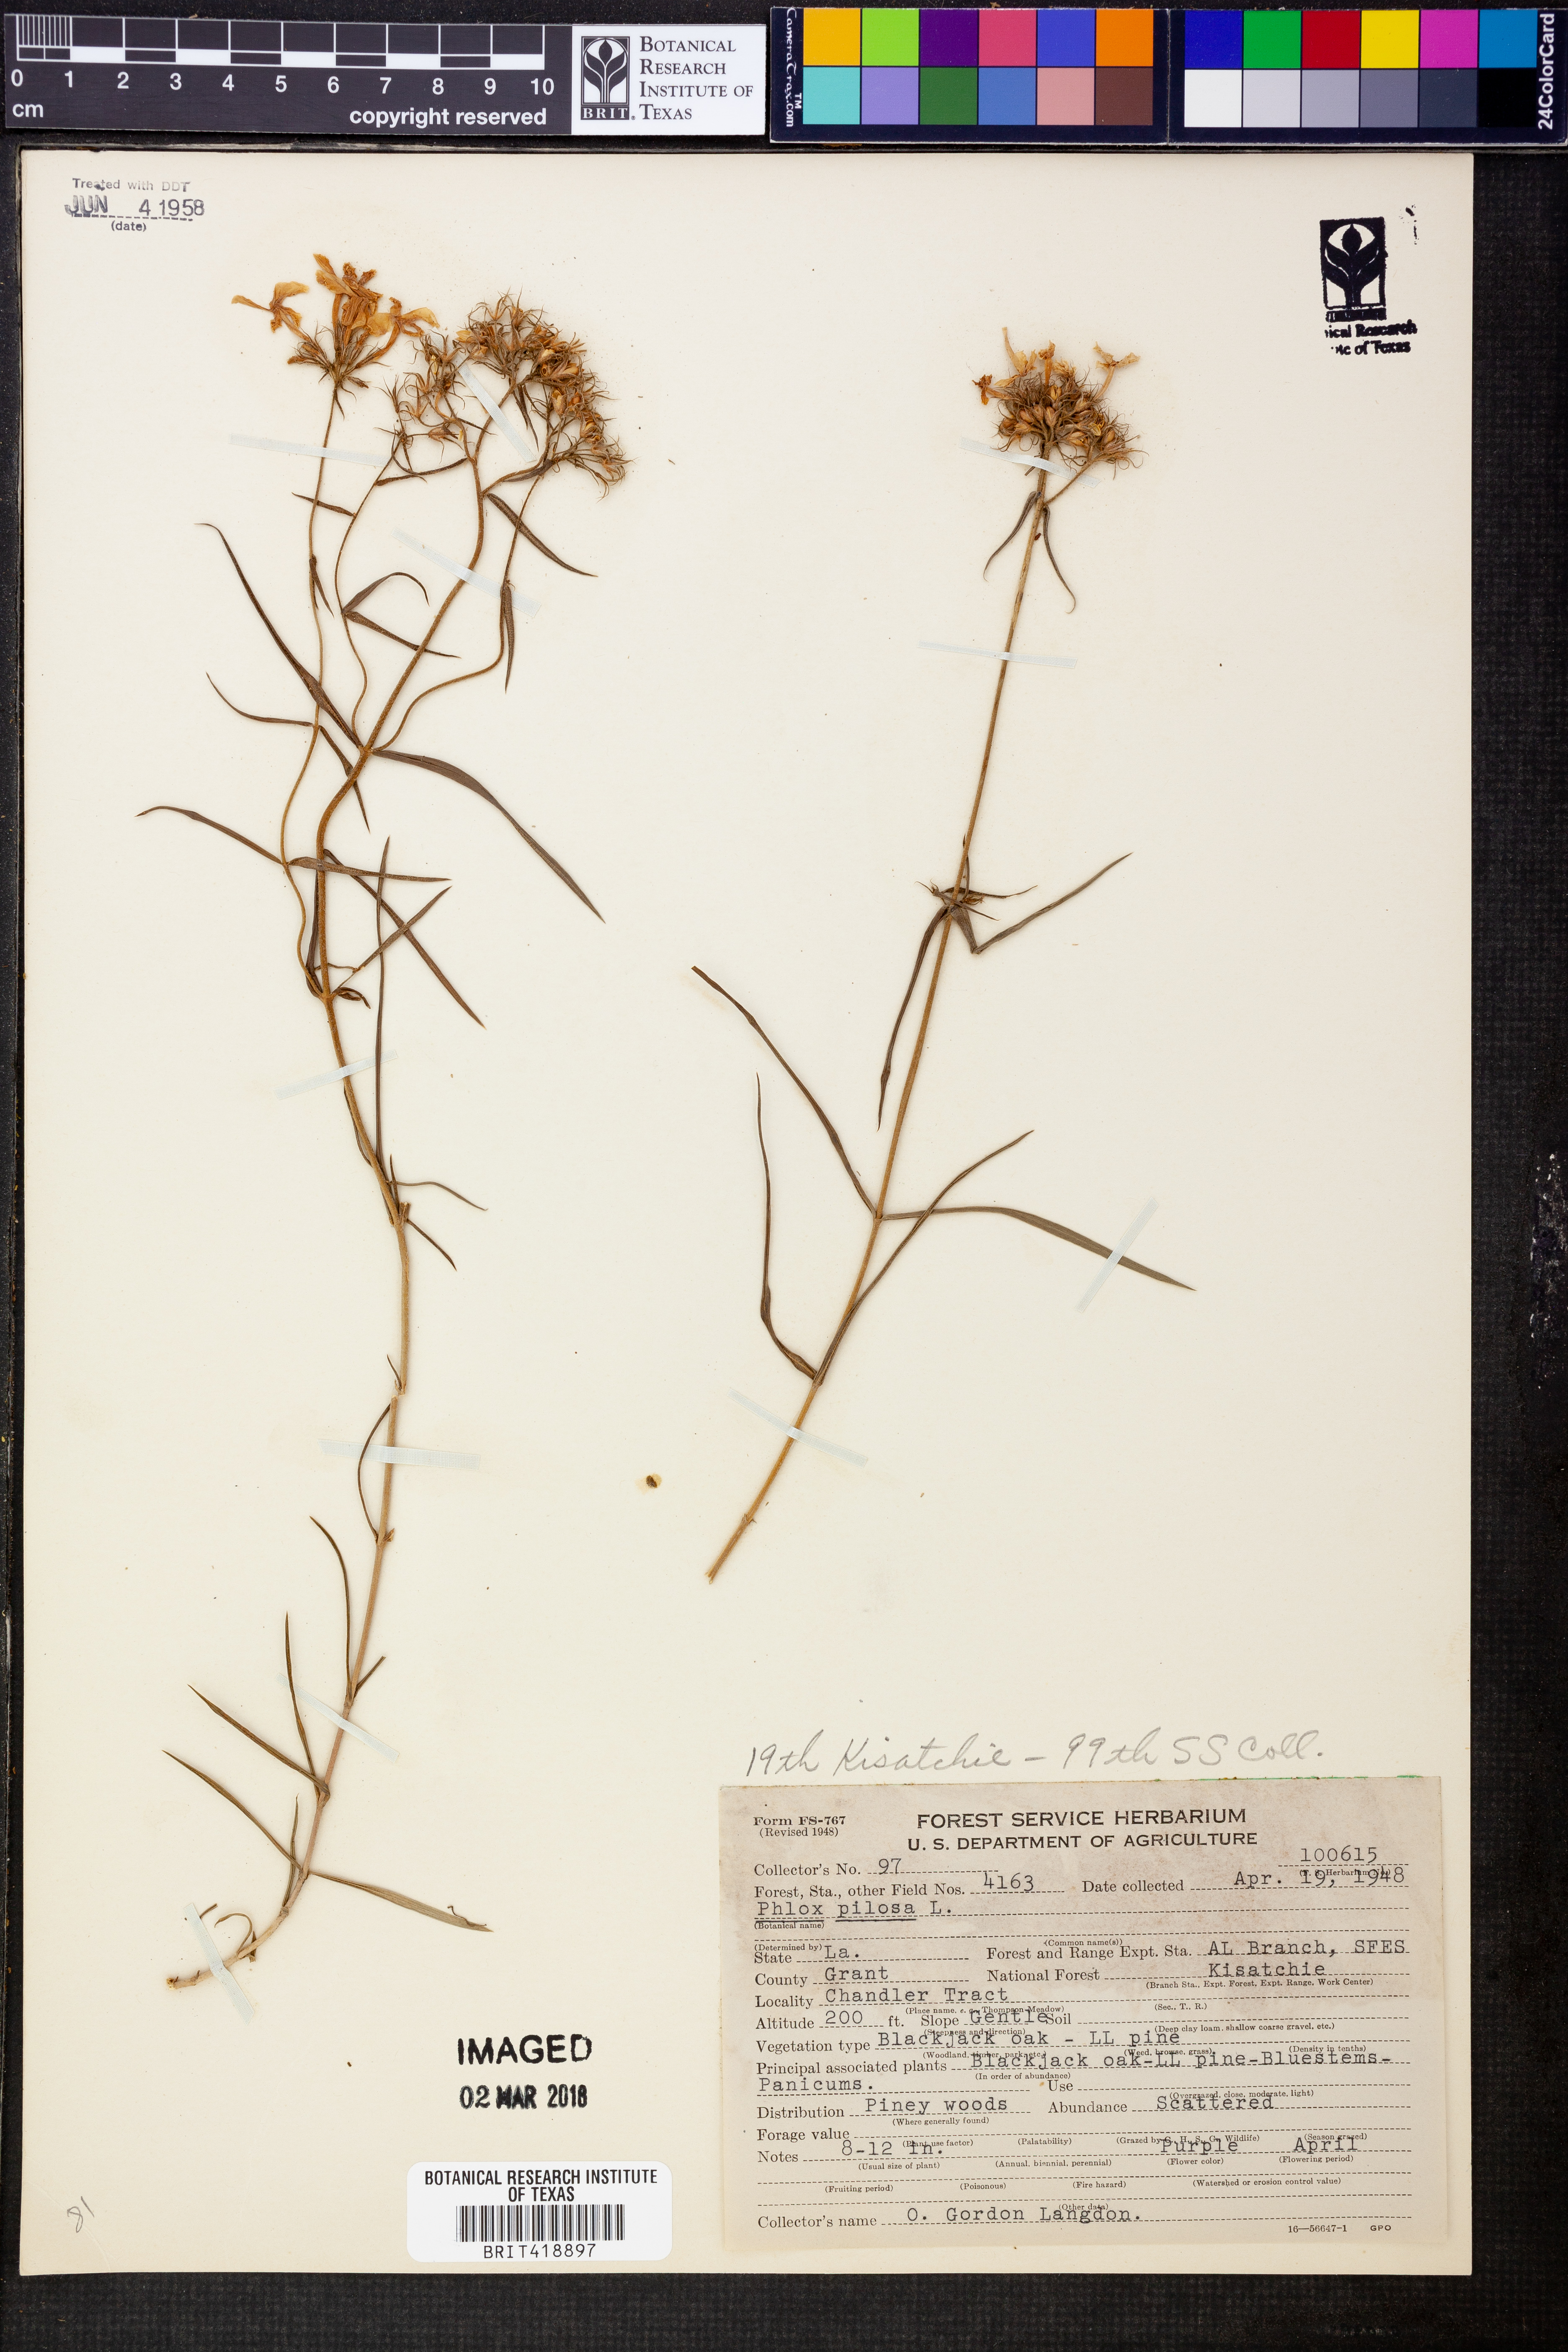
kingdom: Plantae
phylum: Tracheophyta
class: Magnoliopsida
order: Ericales
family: Polemoniaceae
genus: Phlox
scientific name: Phlox pilosa
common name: Prairie phlox
